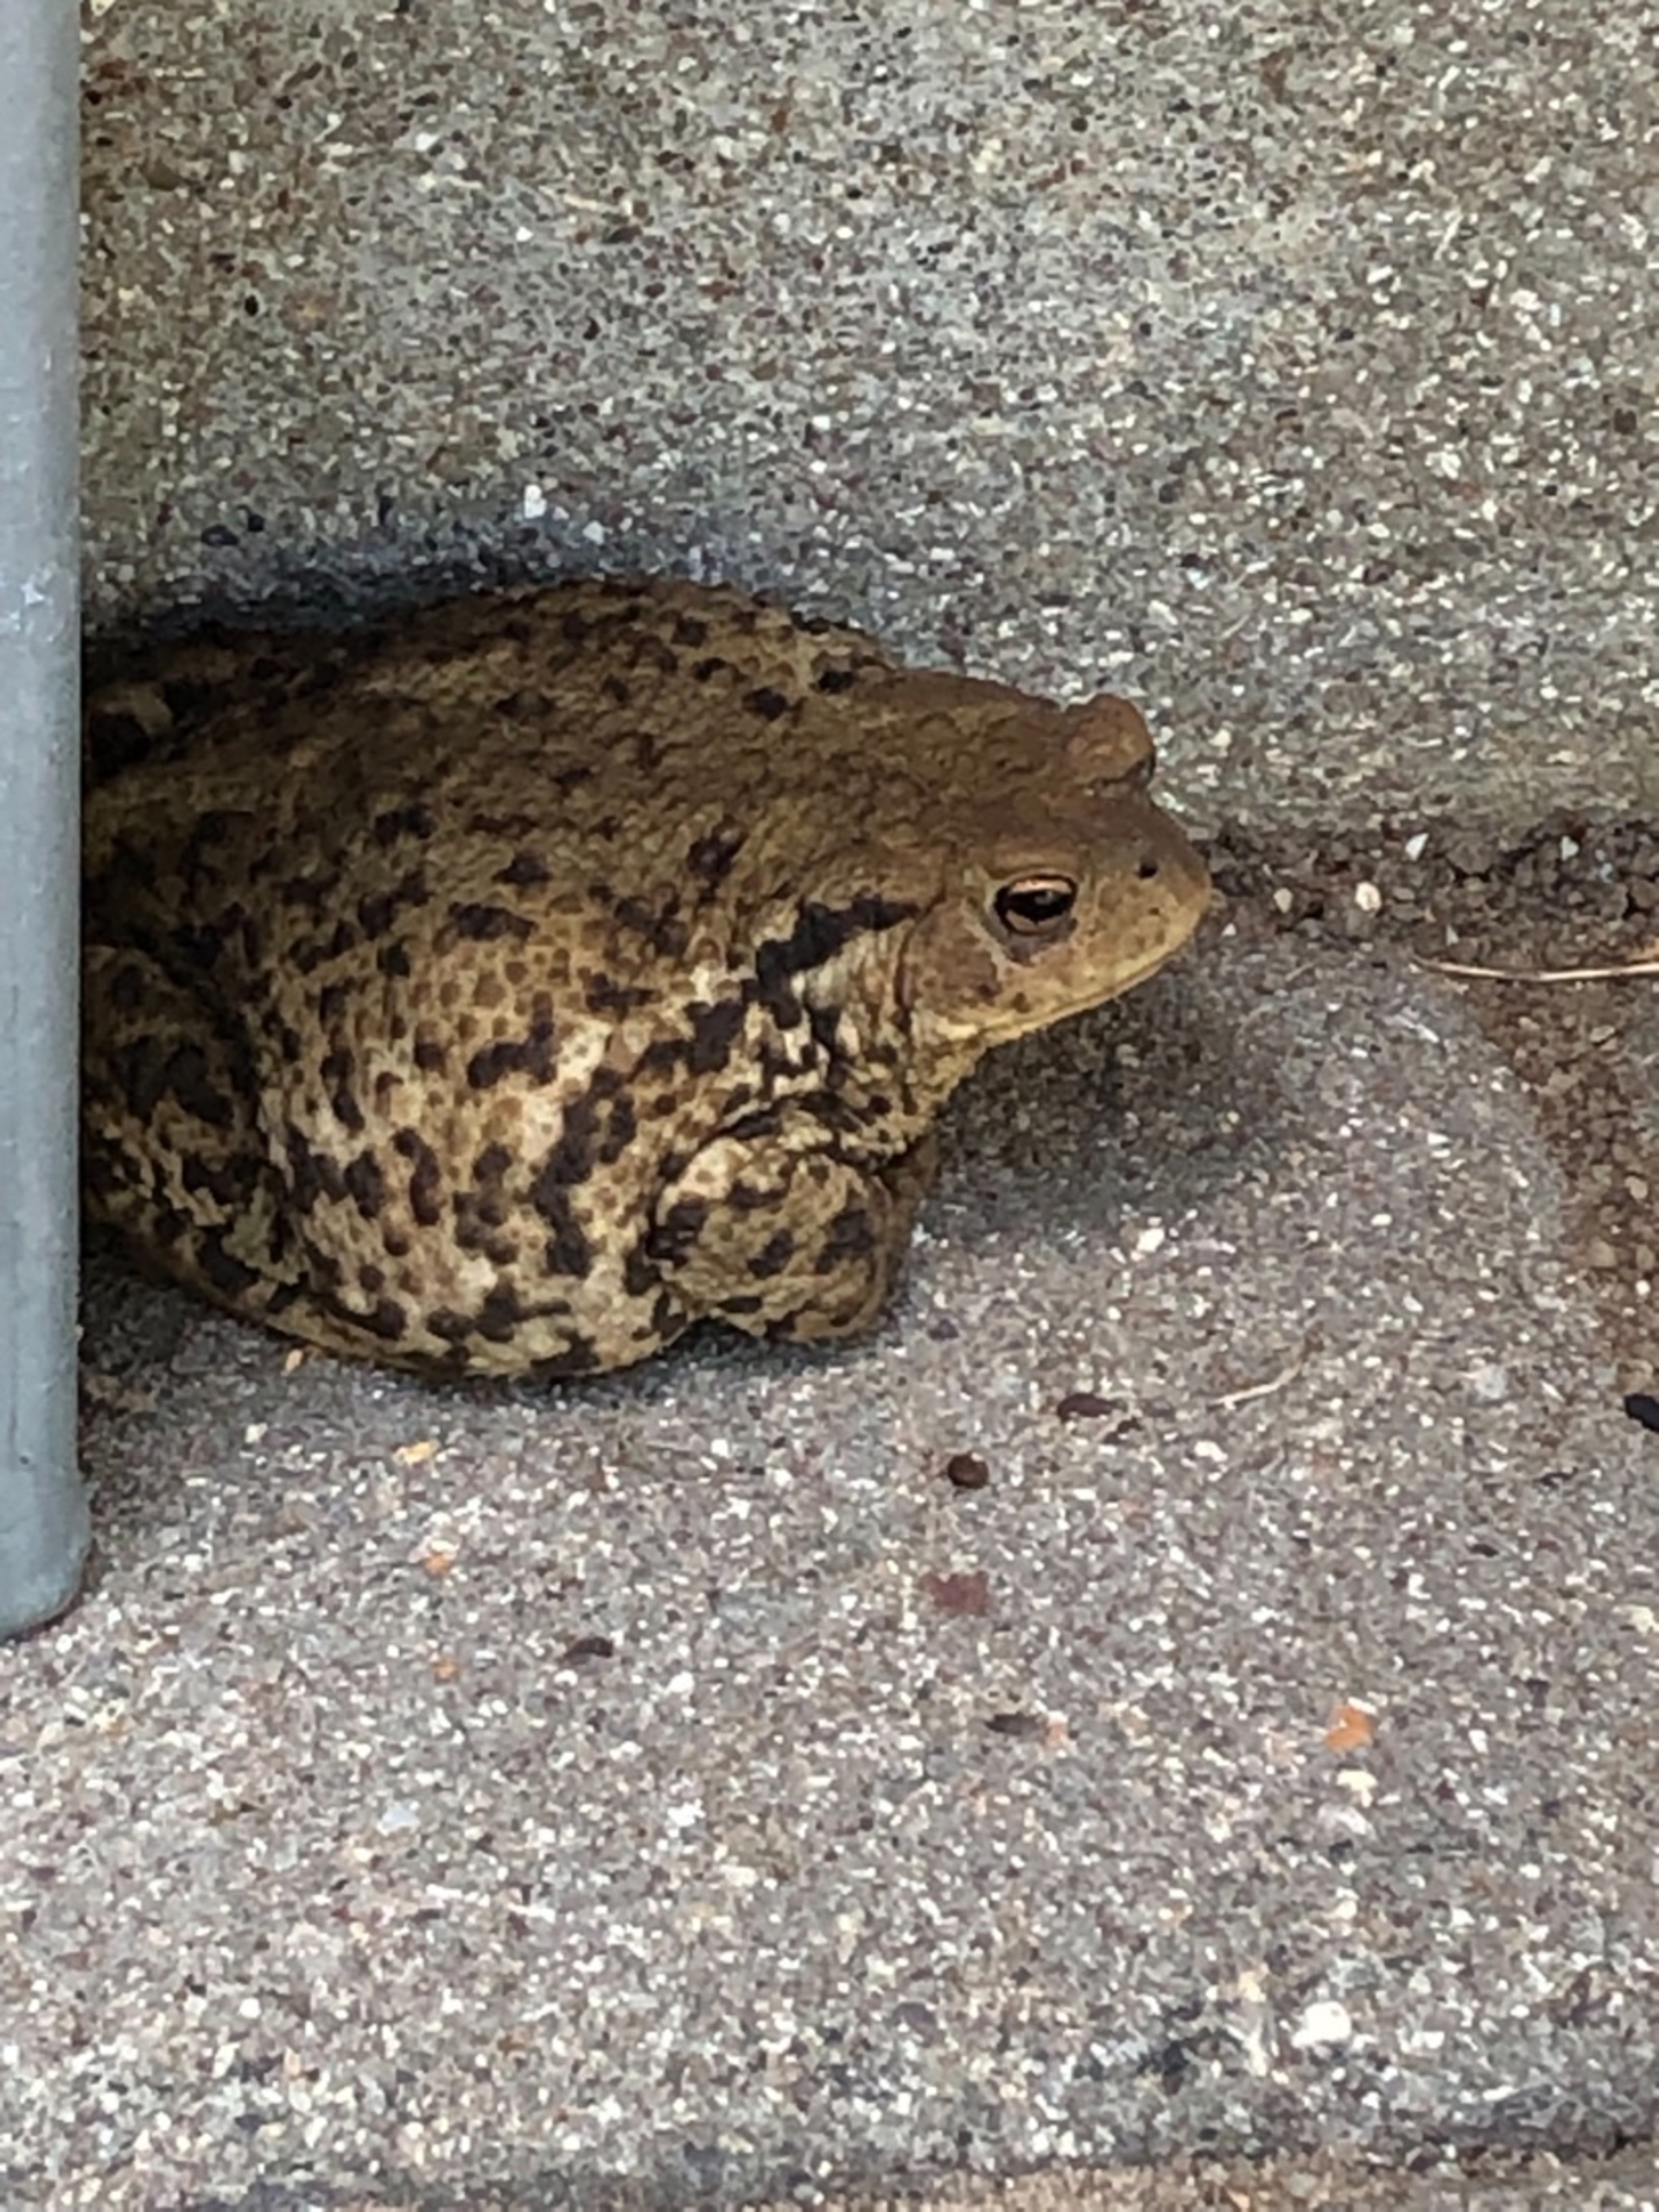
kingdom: Animalia
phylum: Chordata
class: Amphibia
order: Anura
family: Bufonidae
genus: Bufo
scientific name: Bufo bufo
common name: Skrubtudse
